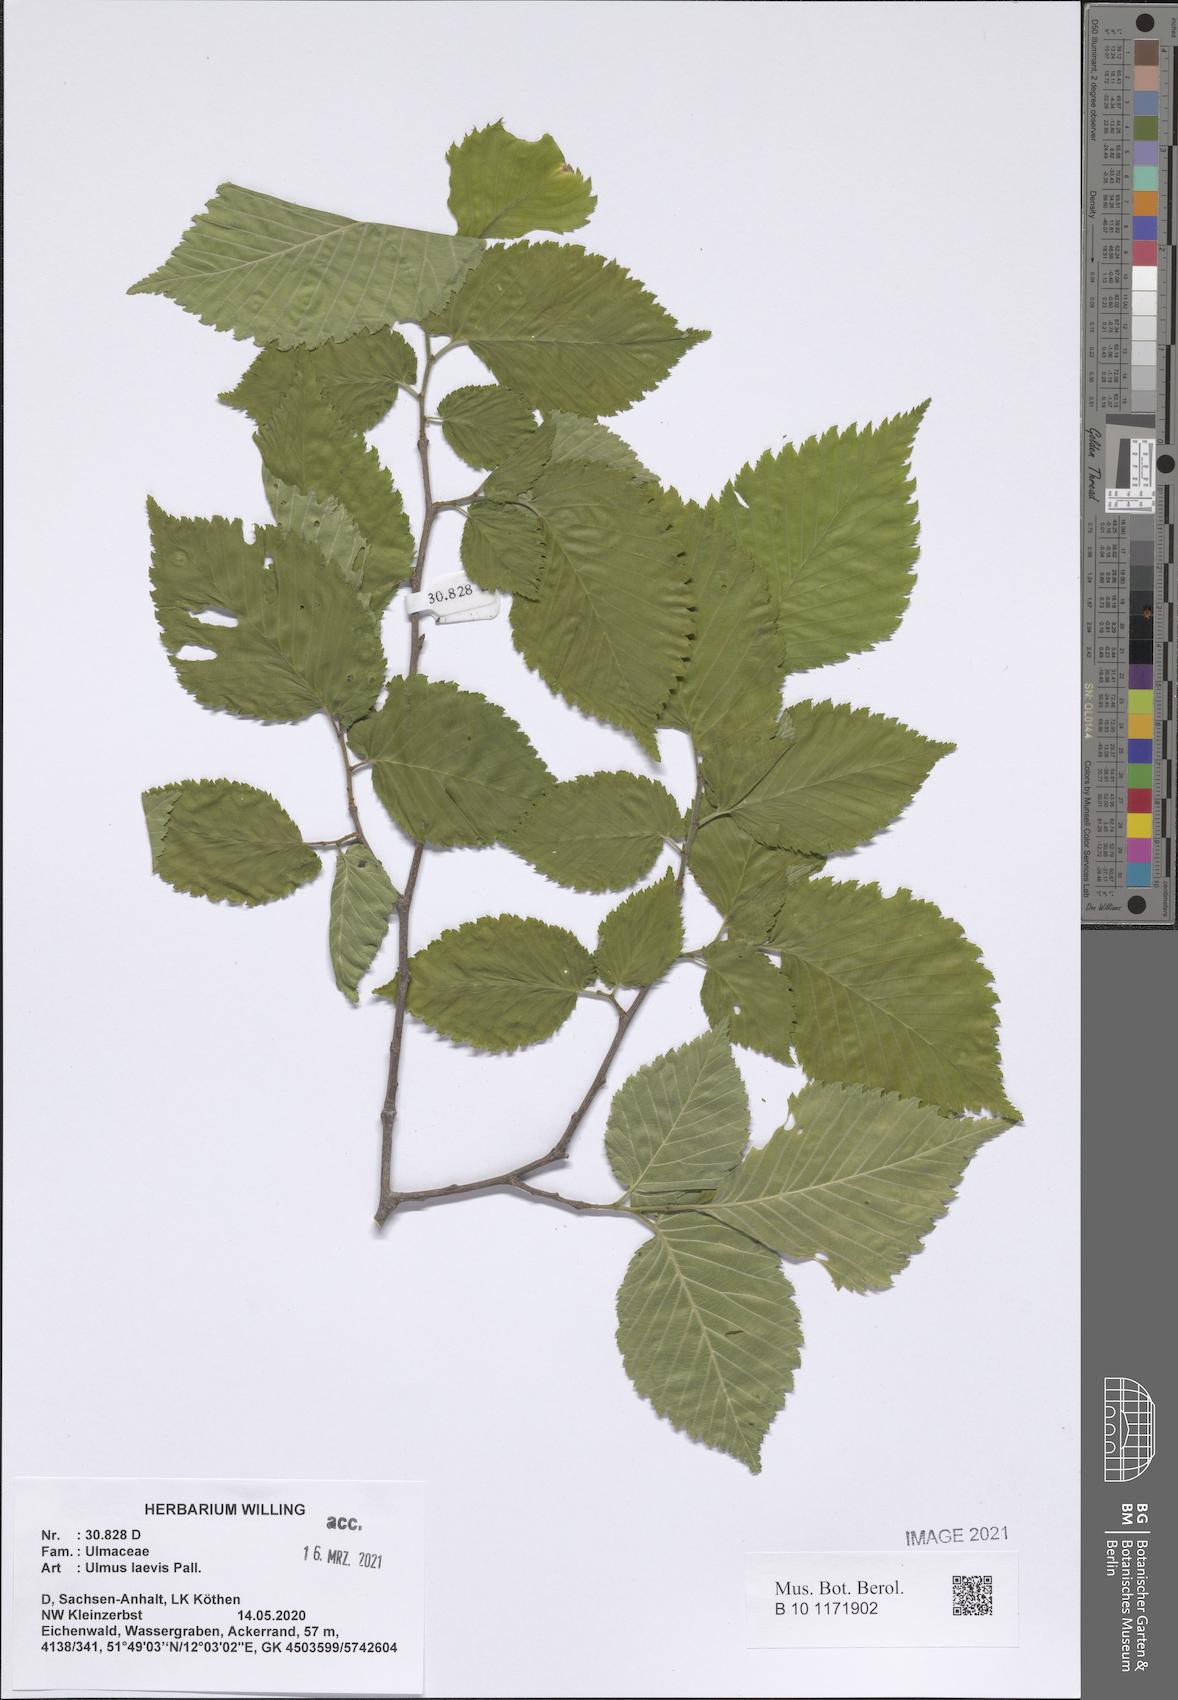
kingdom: Plantae
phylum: Tracheophyta
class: Magnoliopsida
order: Rosales
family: Ulmaceae
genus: Ulmus
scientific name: Ulmus laevis
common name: European white-elm
